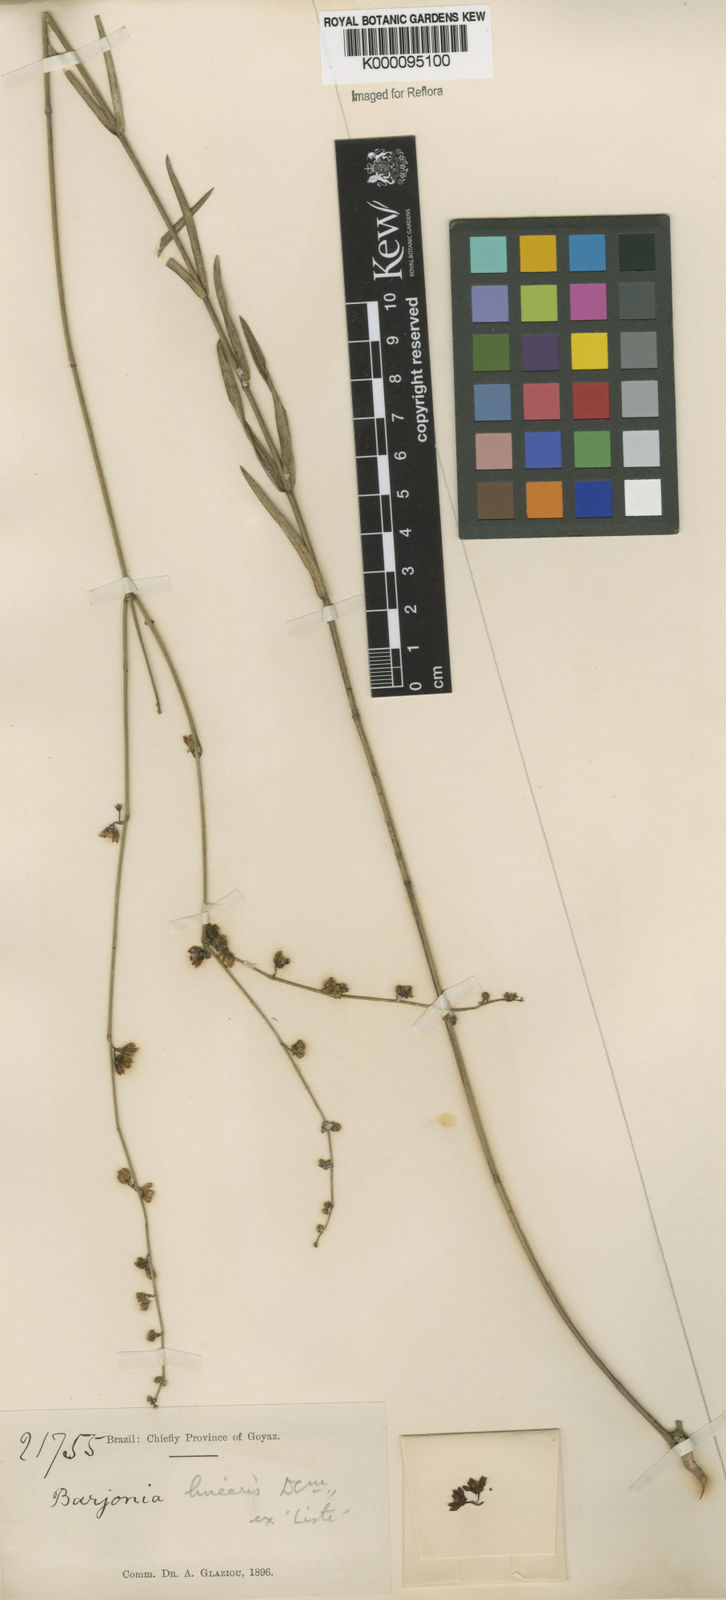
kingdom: Plantae
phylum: Tracheophyta
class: Magnoliopsida
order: Gentianales
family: Apocynaceae
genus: Barjonia
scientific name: Barjonia erecta
